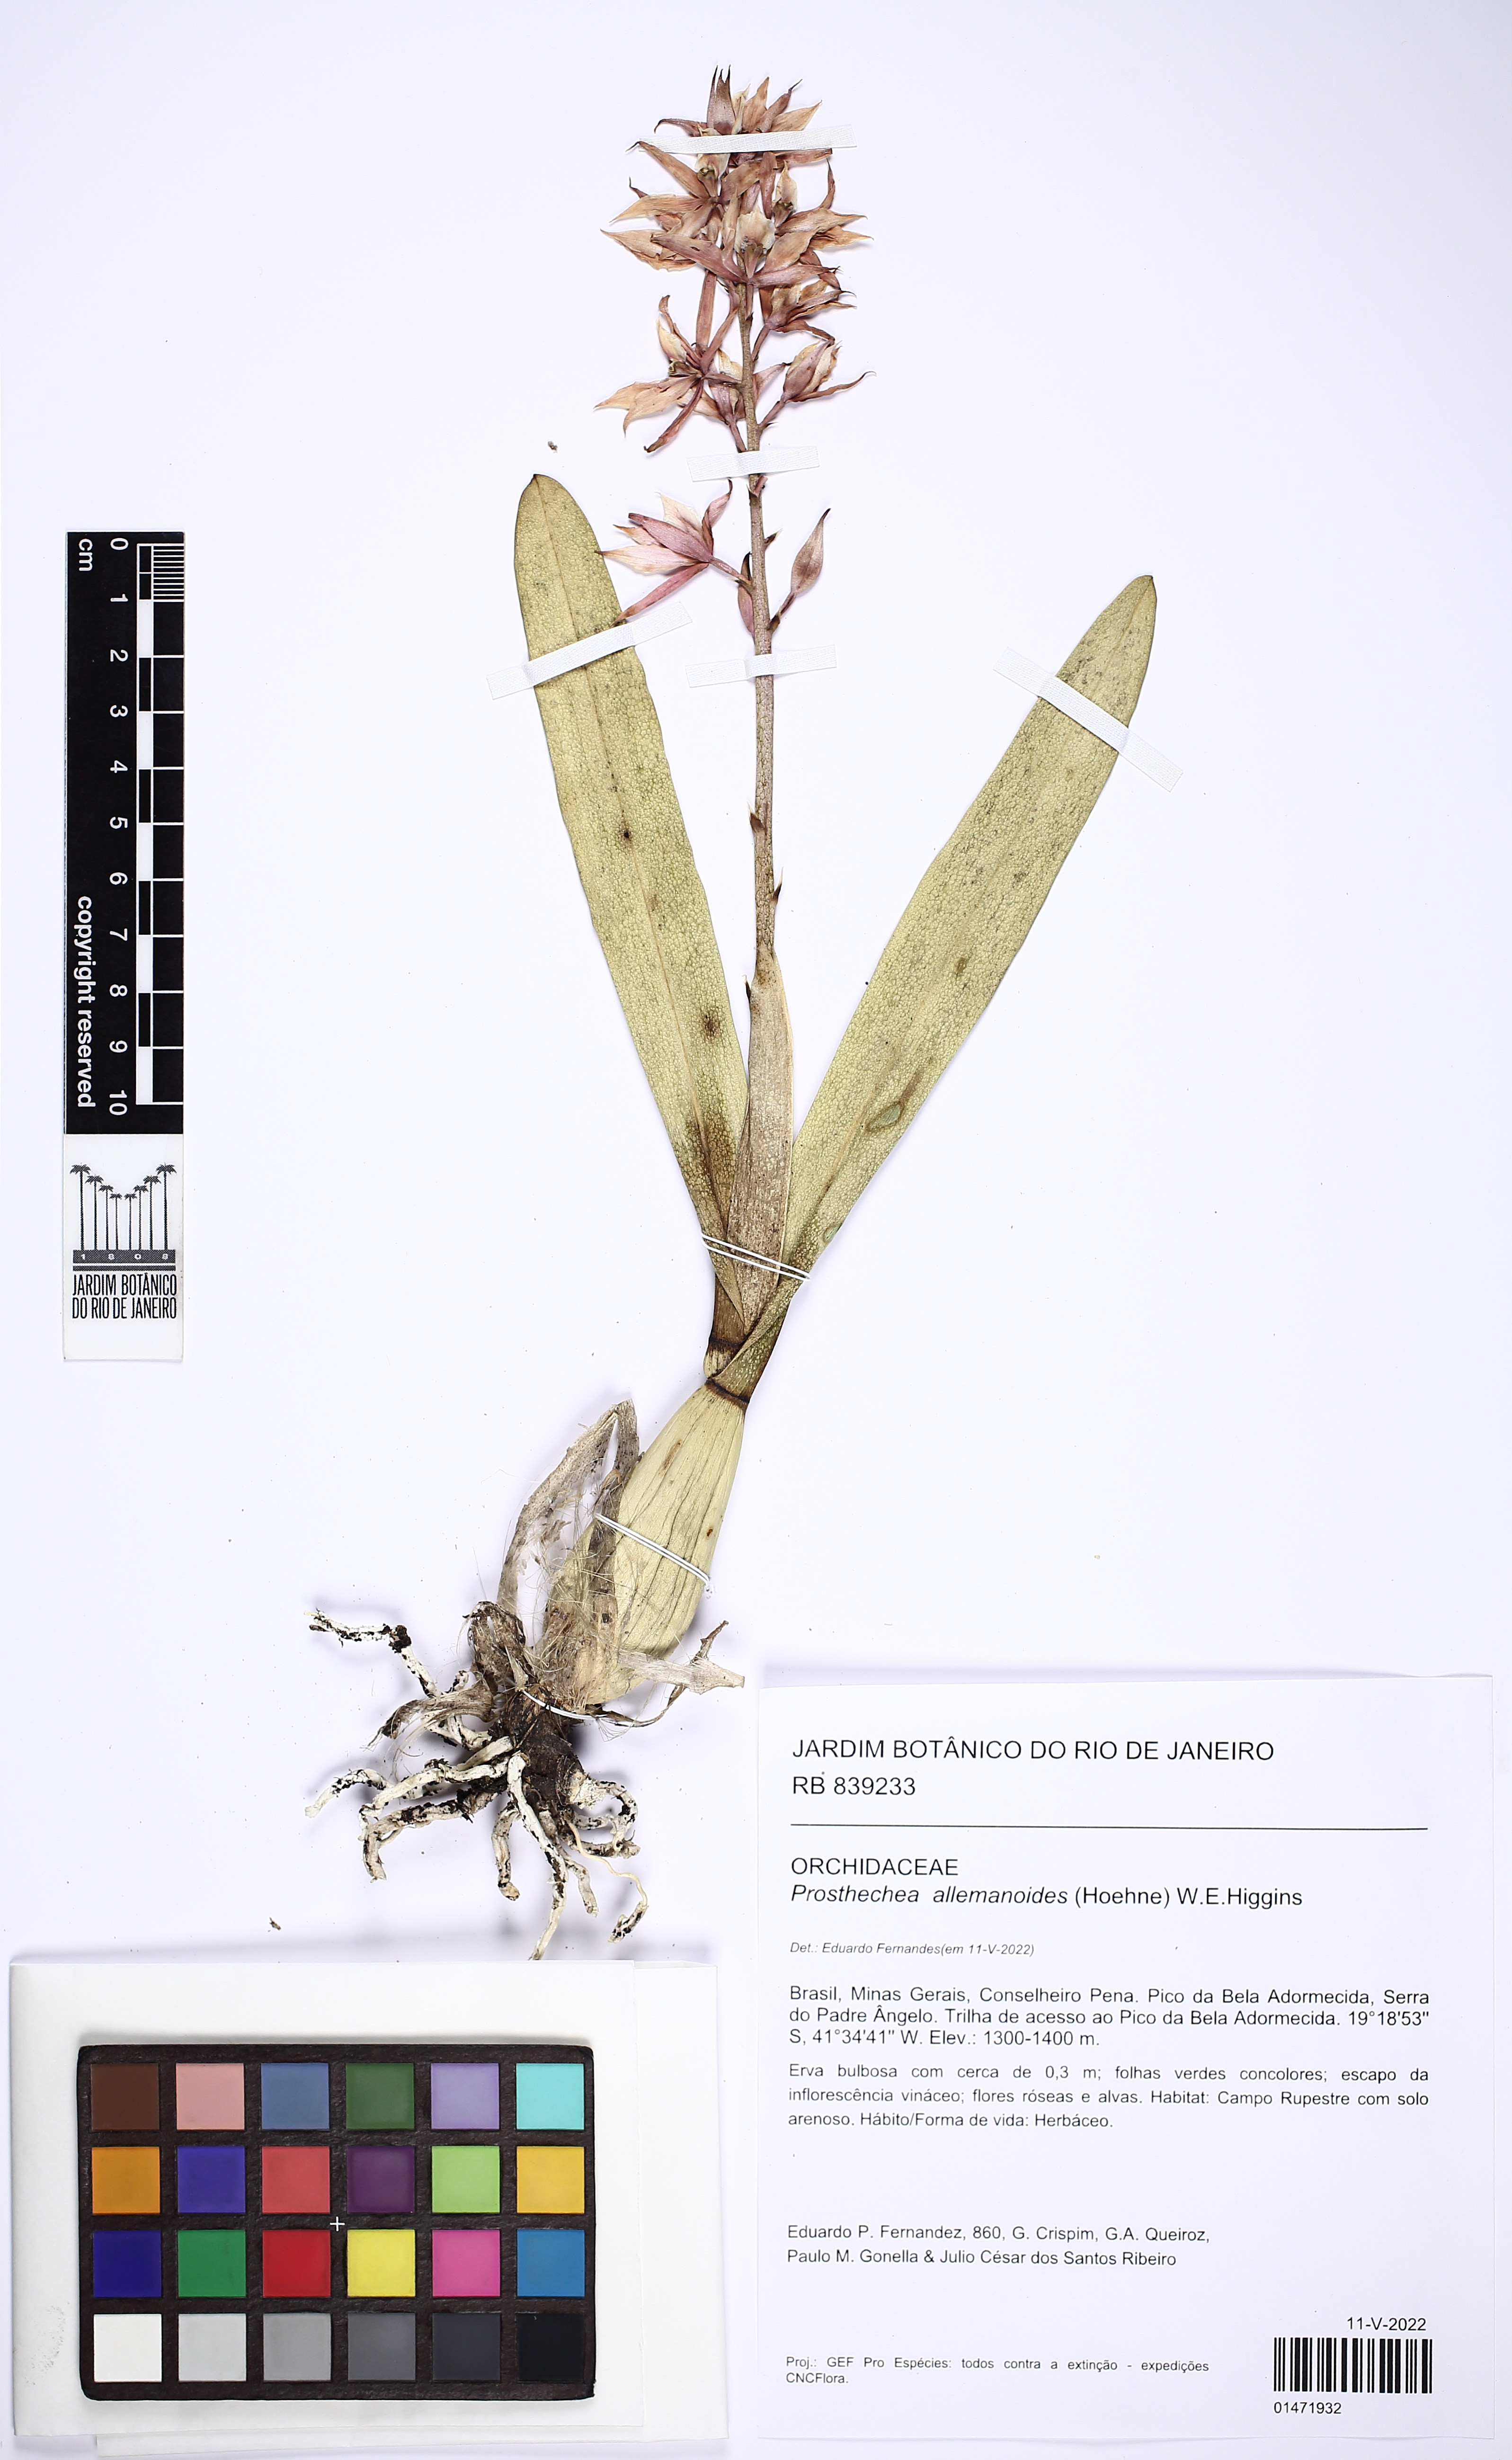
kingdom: Plantae
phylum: Tracheophyta
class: Liliopsida
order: Asparagales
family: Orchidaceae
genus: Prosthechea
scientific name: Prosthechea allemanoides
